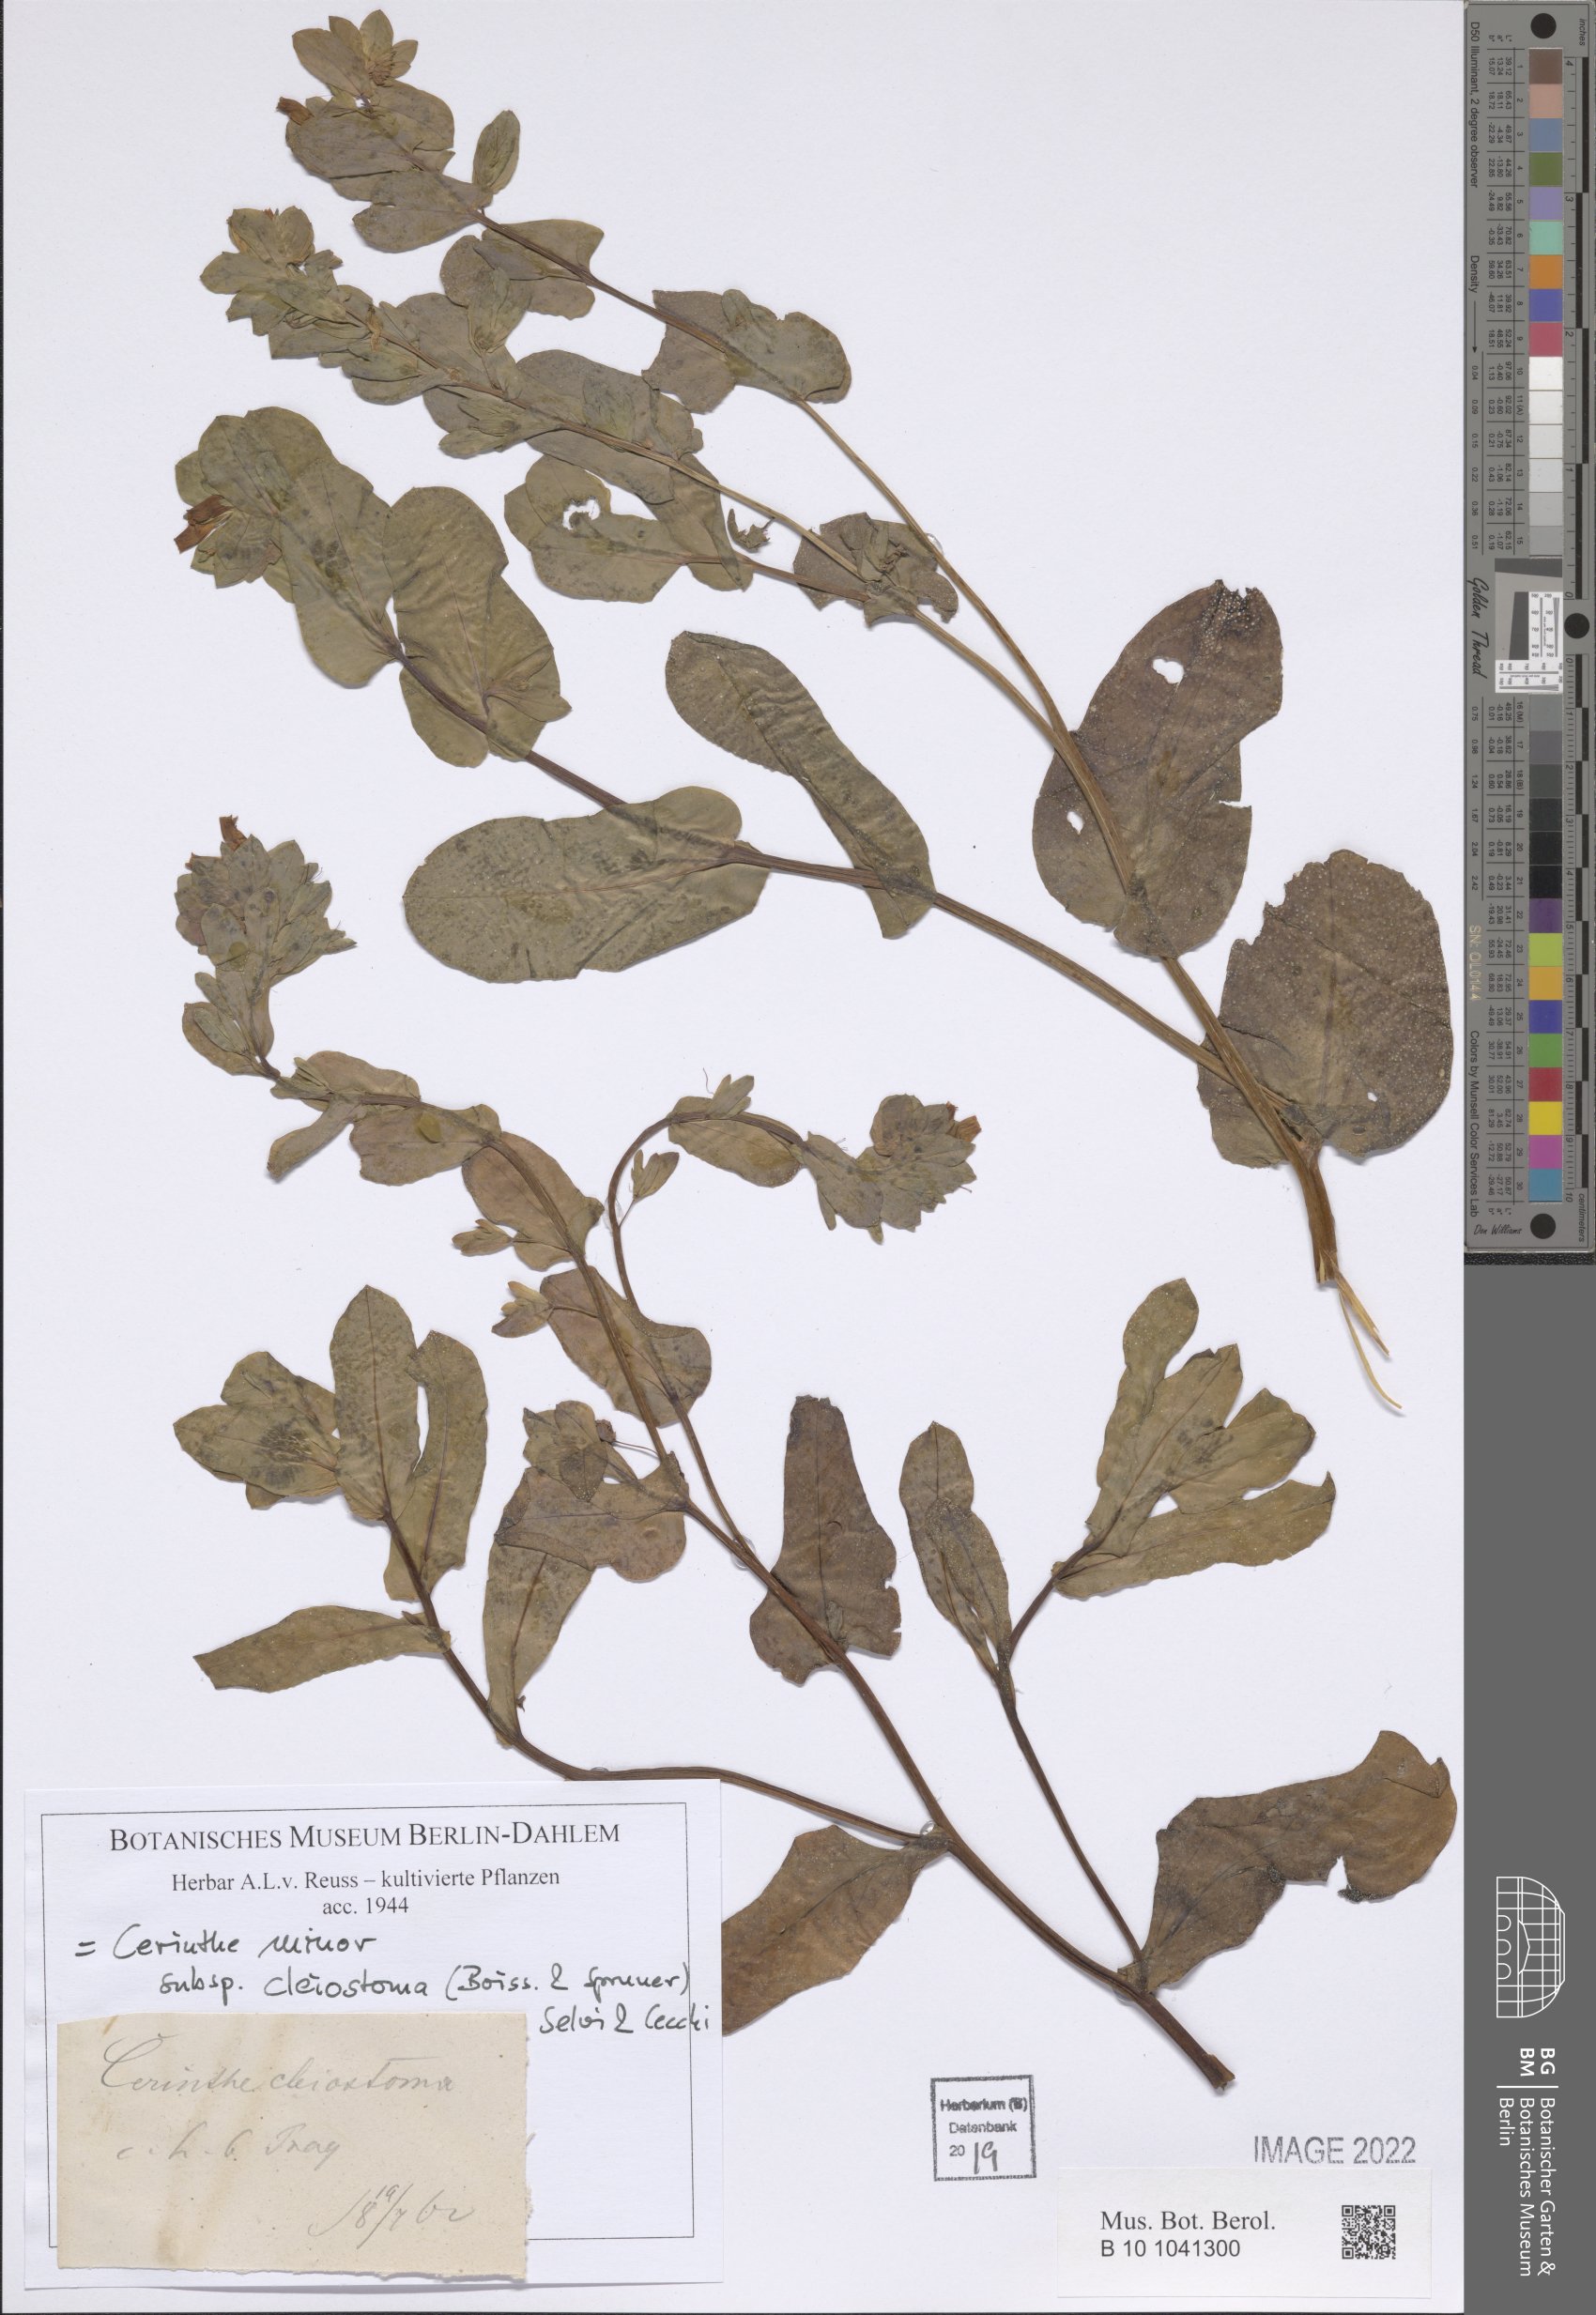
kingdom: Plantae
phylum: Tracheophyta
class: Magnoliopsida
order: Boraginales
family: Boraginaceae
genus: Cerinthe
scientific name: Cerinthe minor
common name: Lesser honeywort
